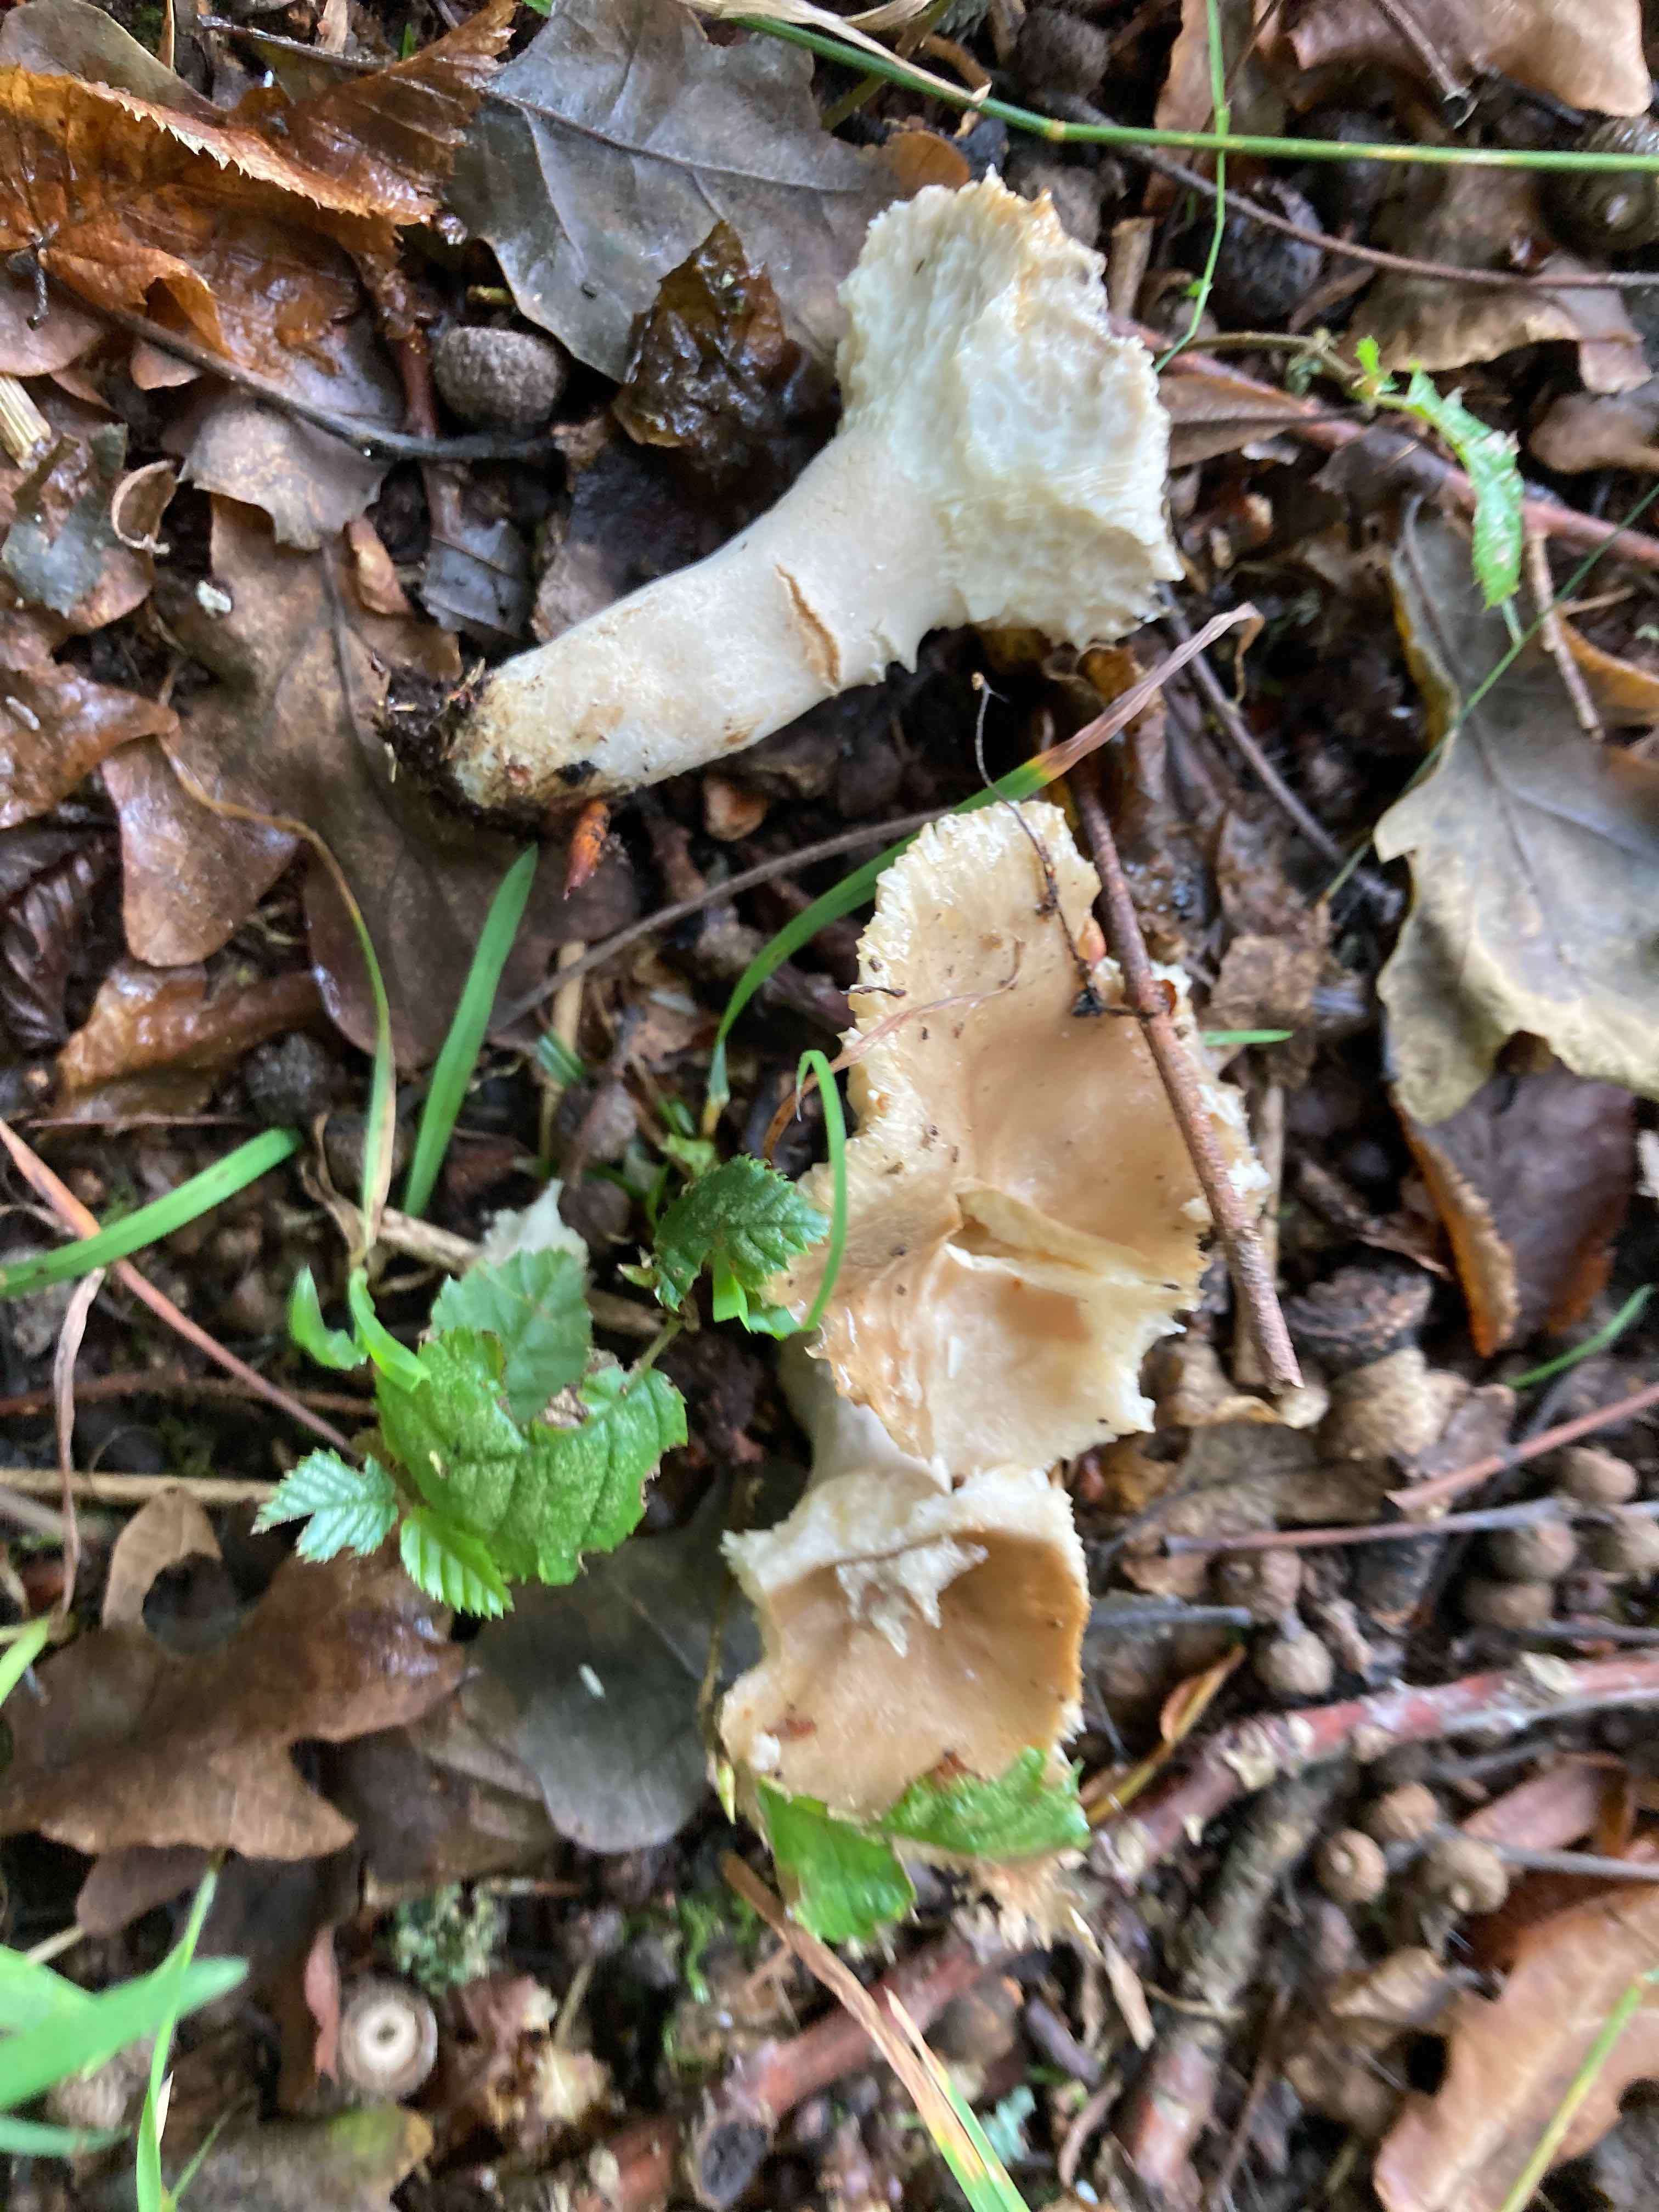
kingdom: Fungi
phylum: Basidiomycota
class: Agaricomycetes
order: Russulales
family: Russulaceae
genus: Russula
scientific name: Russula recondita
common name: mild kam-skørhat
